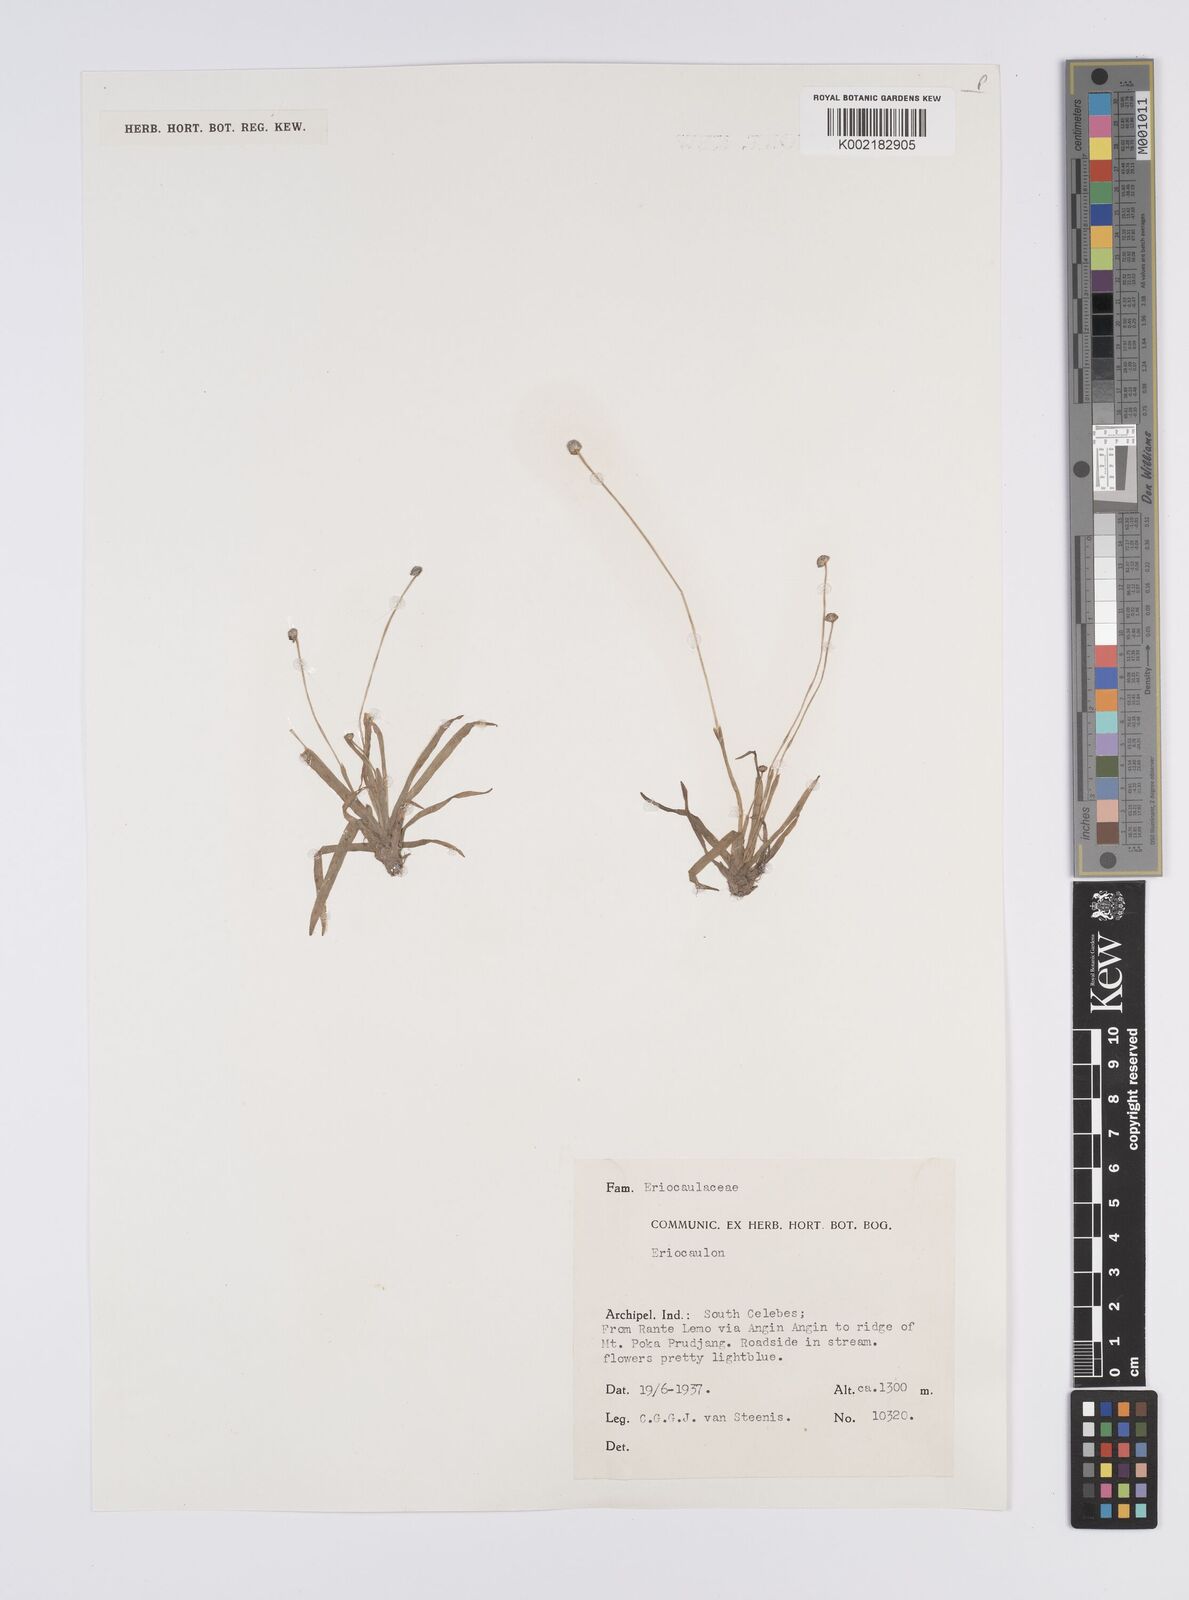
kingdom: Plantae
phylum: Tracheophyta
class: Liliopsida
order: Poales
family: Eriocaulaceae
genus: Eriocaulon
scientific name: Eriocaulon
